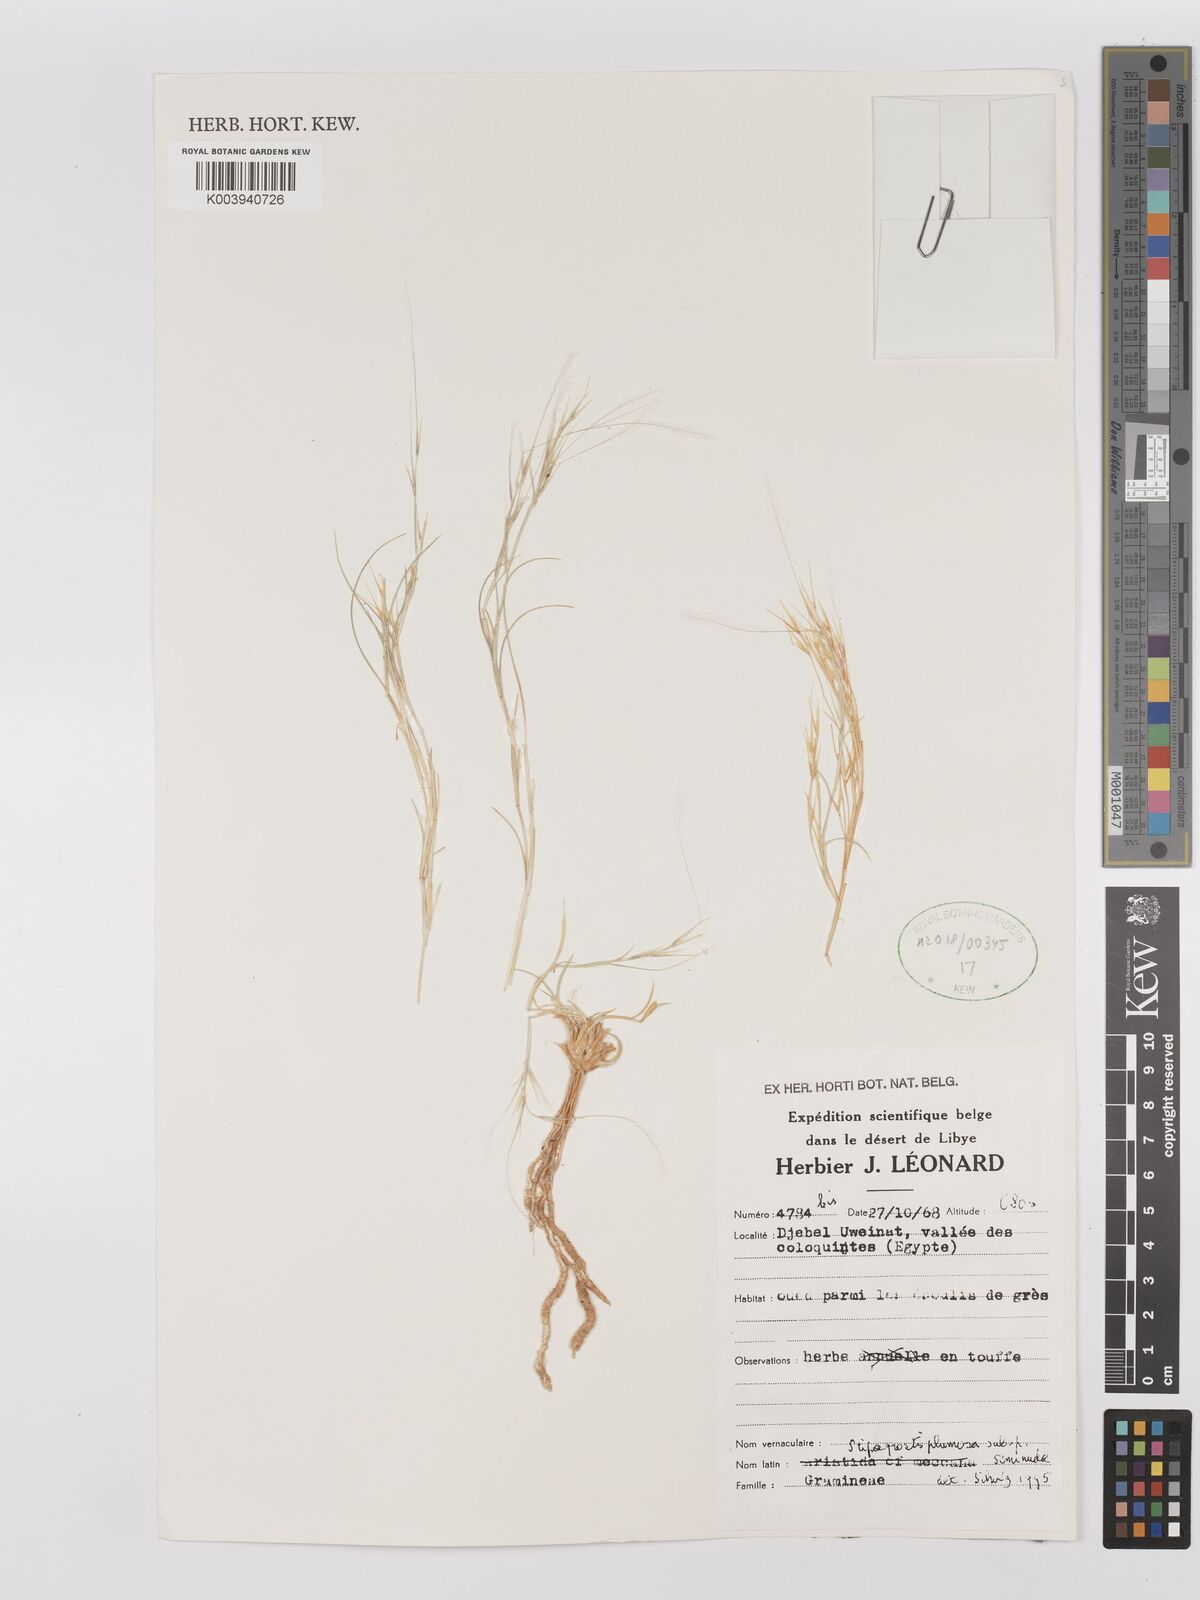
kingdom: Plantae
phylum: Tracheophyta
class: Liliopsida
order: Poales
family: Poaceae
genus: Stipagrostis
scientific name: Stipagrostis plumosa
